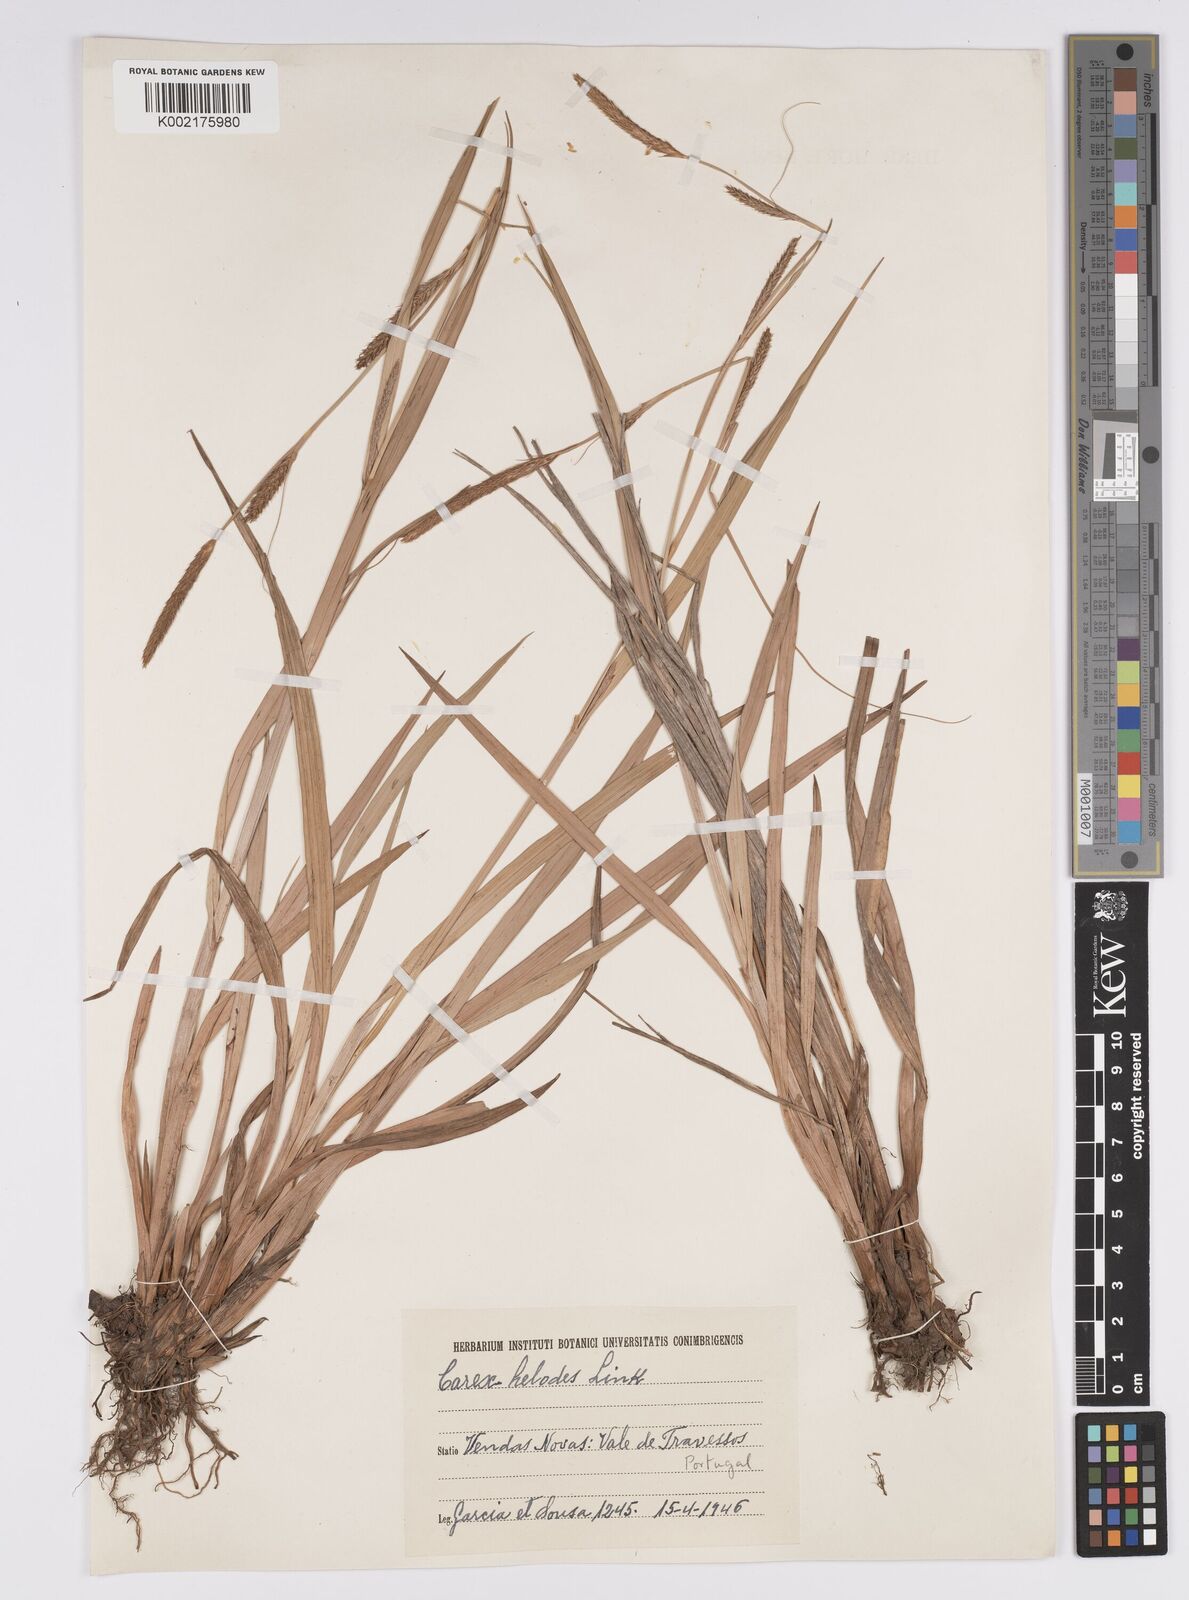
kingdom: Plantae
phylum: Tracheophyta
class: Liliopsida
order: Poales
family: Cyperaceae
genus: Carex
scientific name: Carex laevigata
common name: Smooth-stalked sedge
